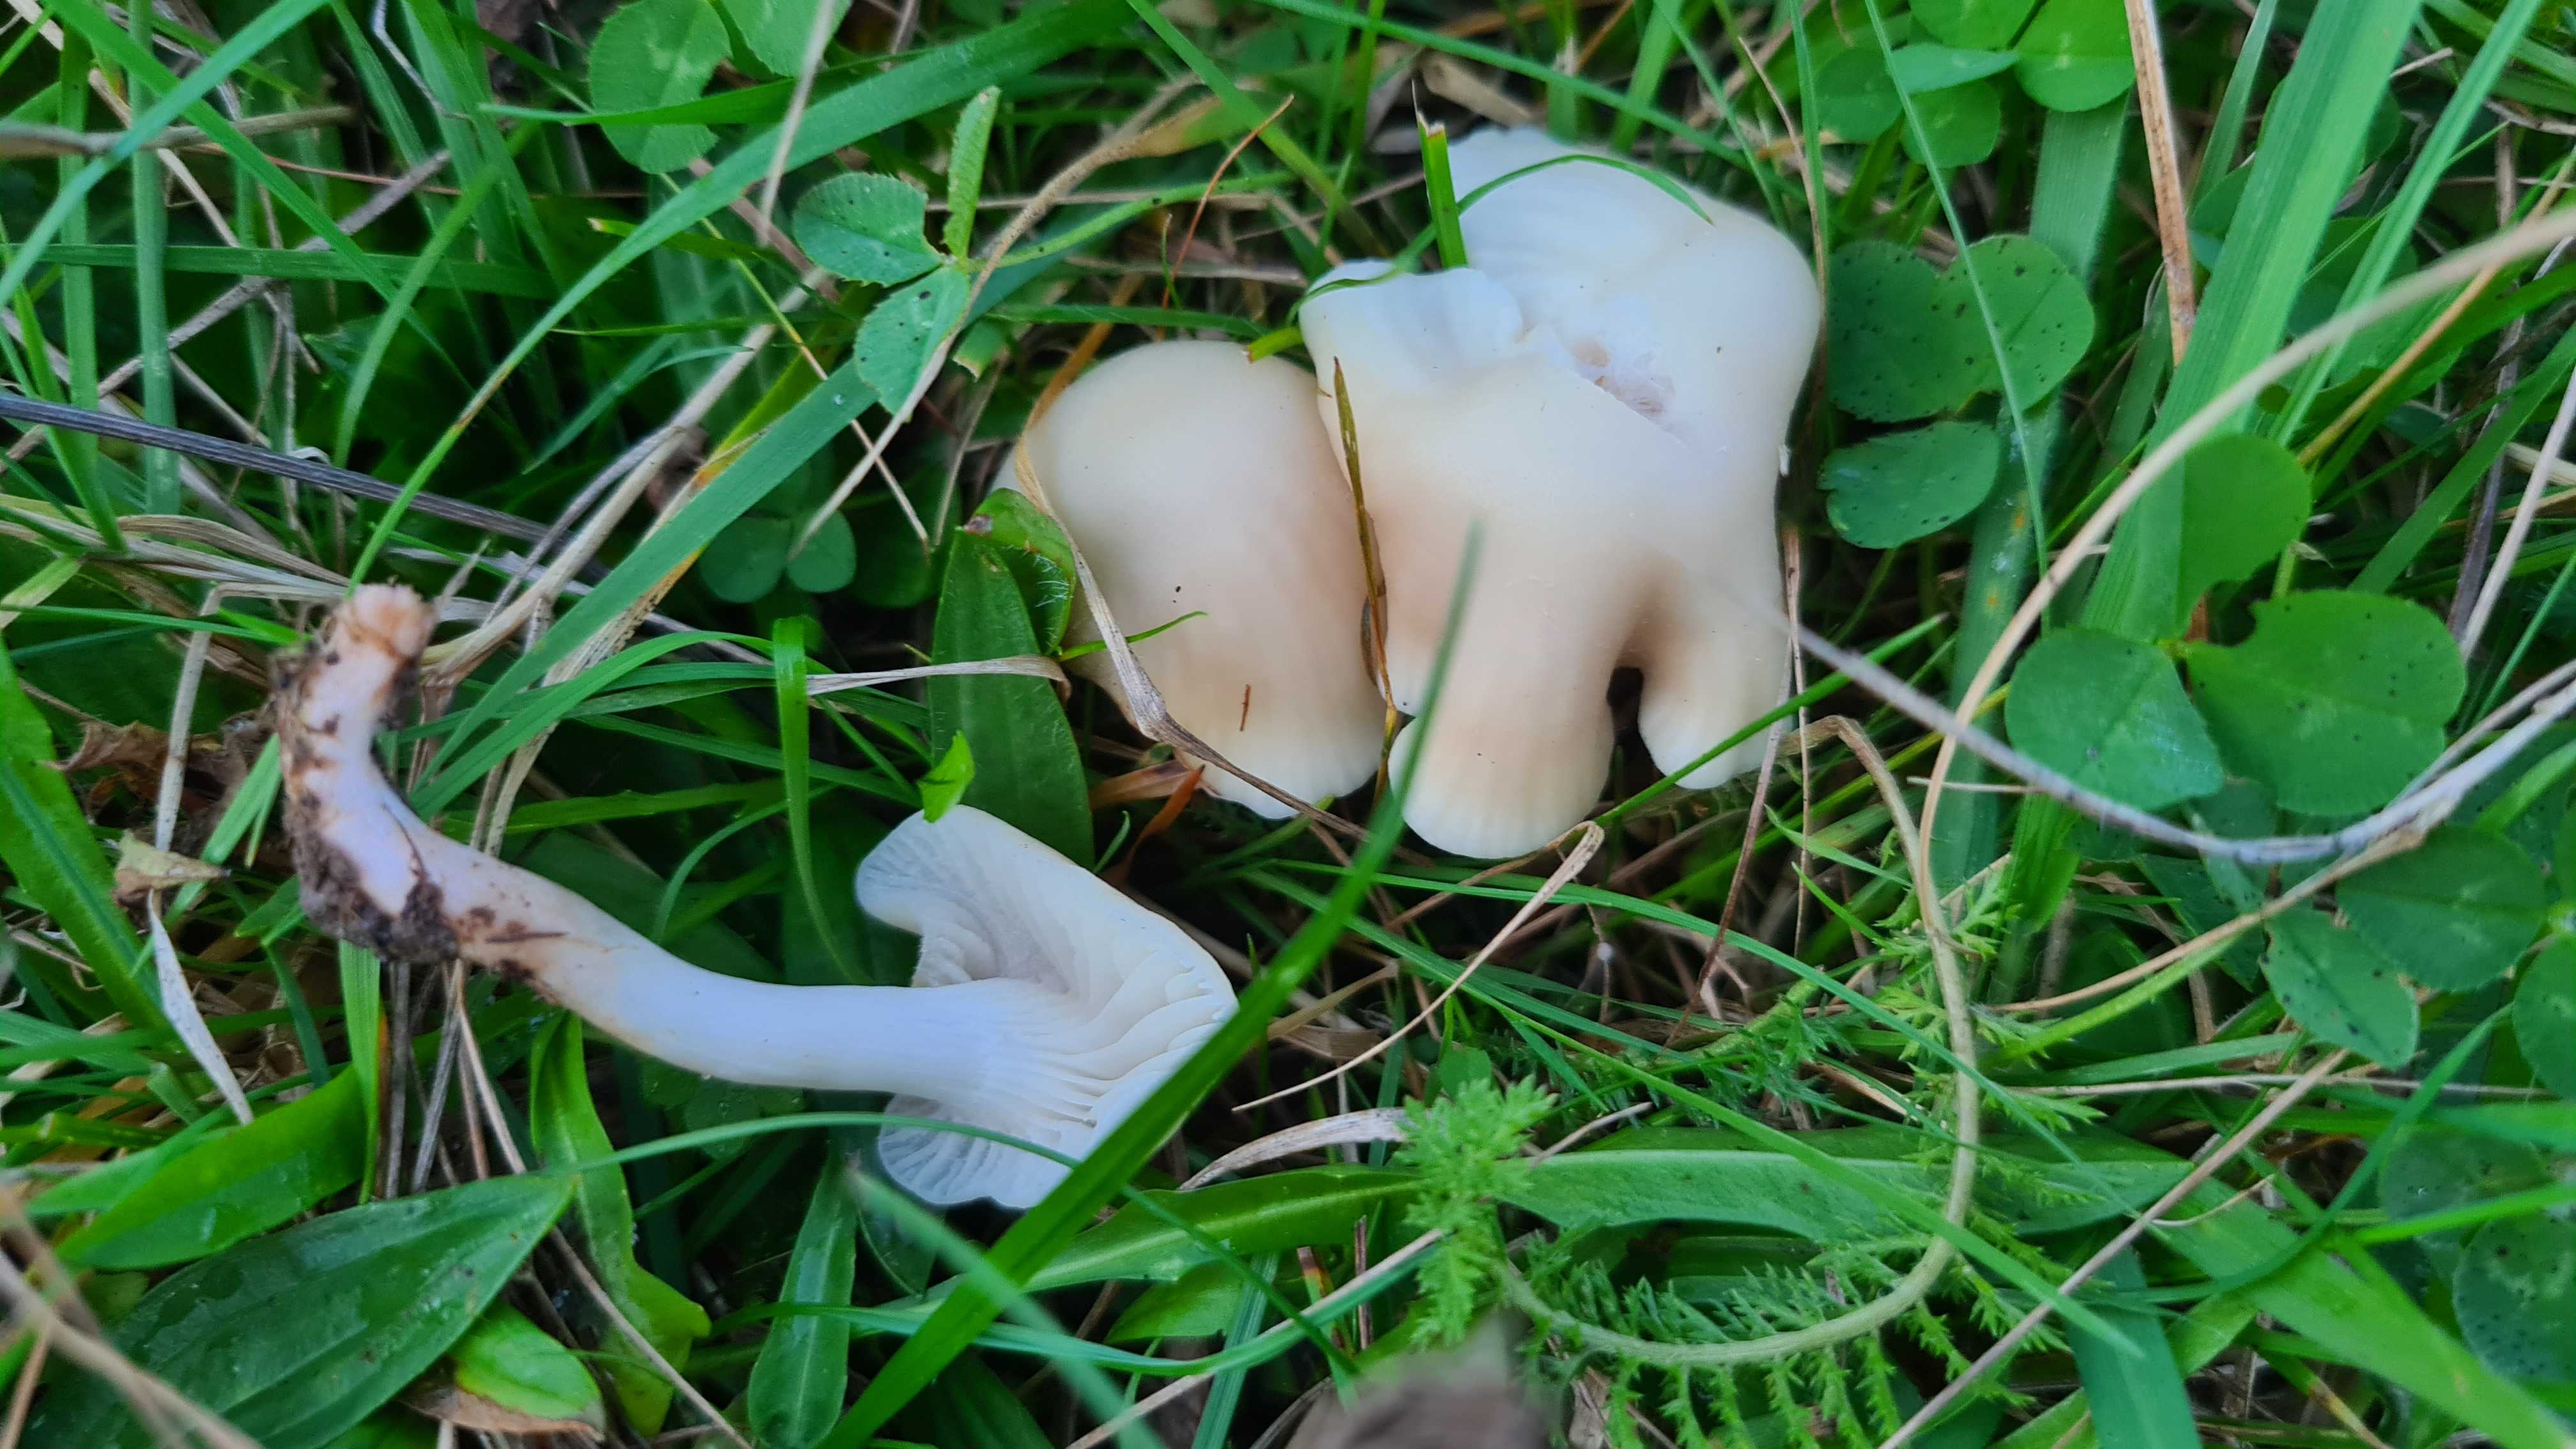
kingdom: Fungi
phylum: Basidiomycota
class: Agaricomycetes
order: Agaricales
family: Hygrophoraceae
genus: Cuphophyllus
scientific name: Cuphophyllus russocoriaceus
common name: ruslæder-vokshat
